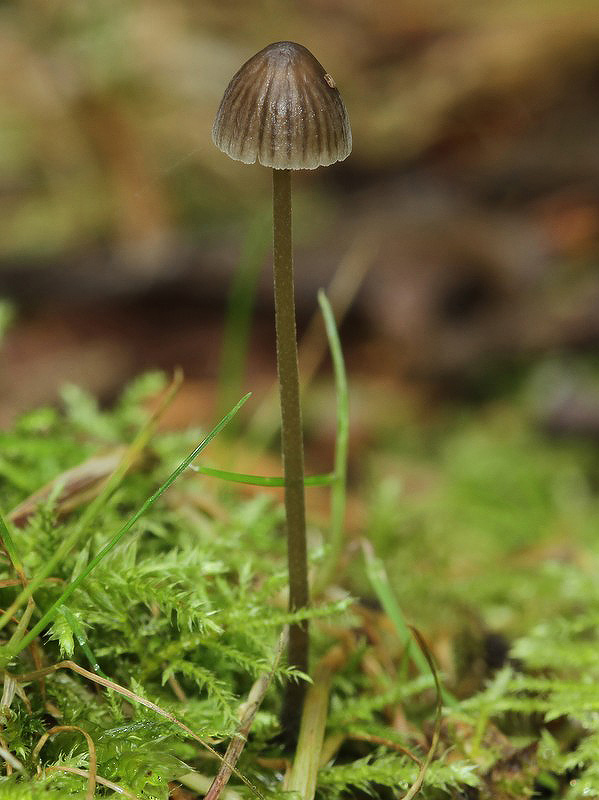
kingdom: Fungi
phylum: Basidiomycota
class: Agaricomycetes
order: Agaricales
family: Mycenaceae
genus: Mycena
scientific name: Mycena leptocephala
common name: klor-huesvamp
